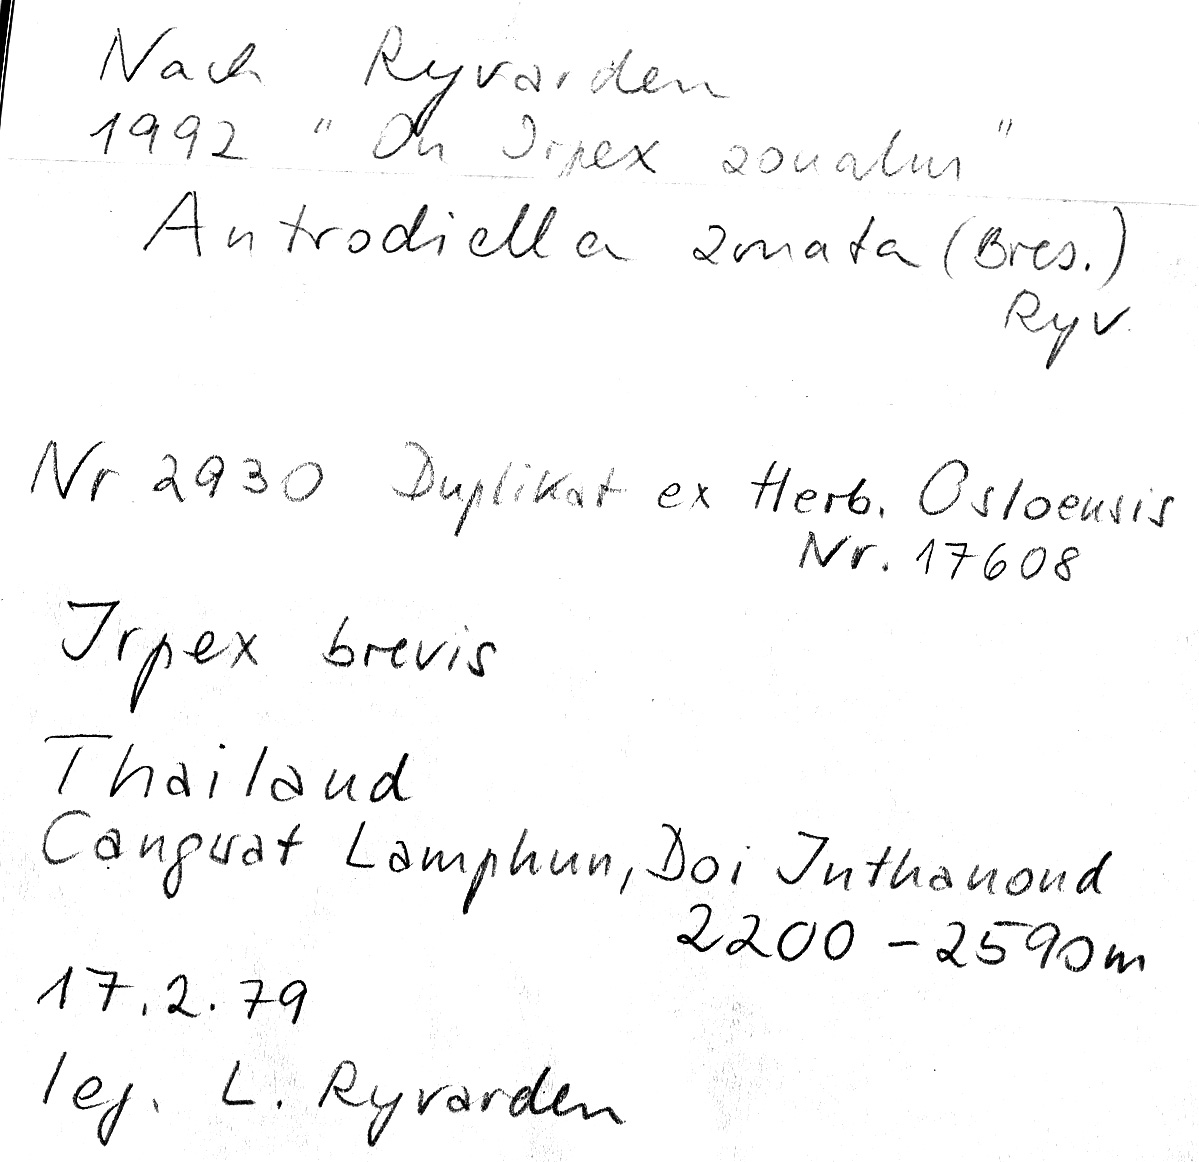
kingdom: Fungi
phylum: Basidiomycota
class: Agaricomycetes
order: Polyporales
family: Cerrenaceae
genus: Cerrena
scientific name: Cerrena zonata
